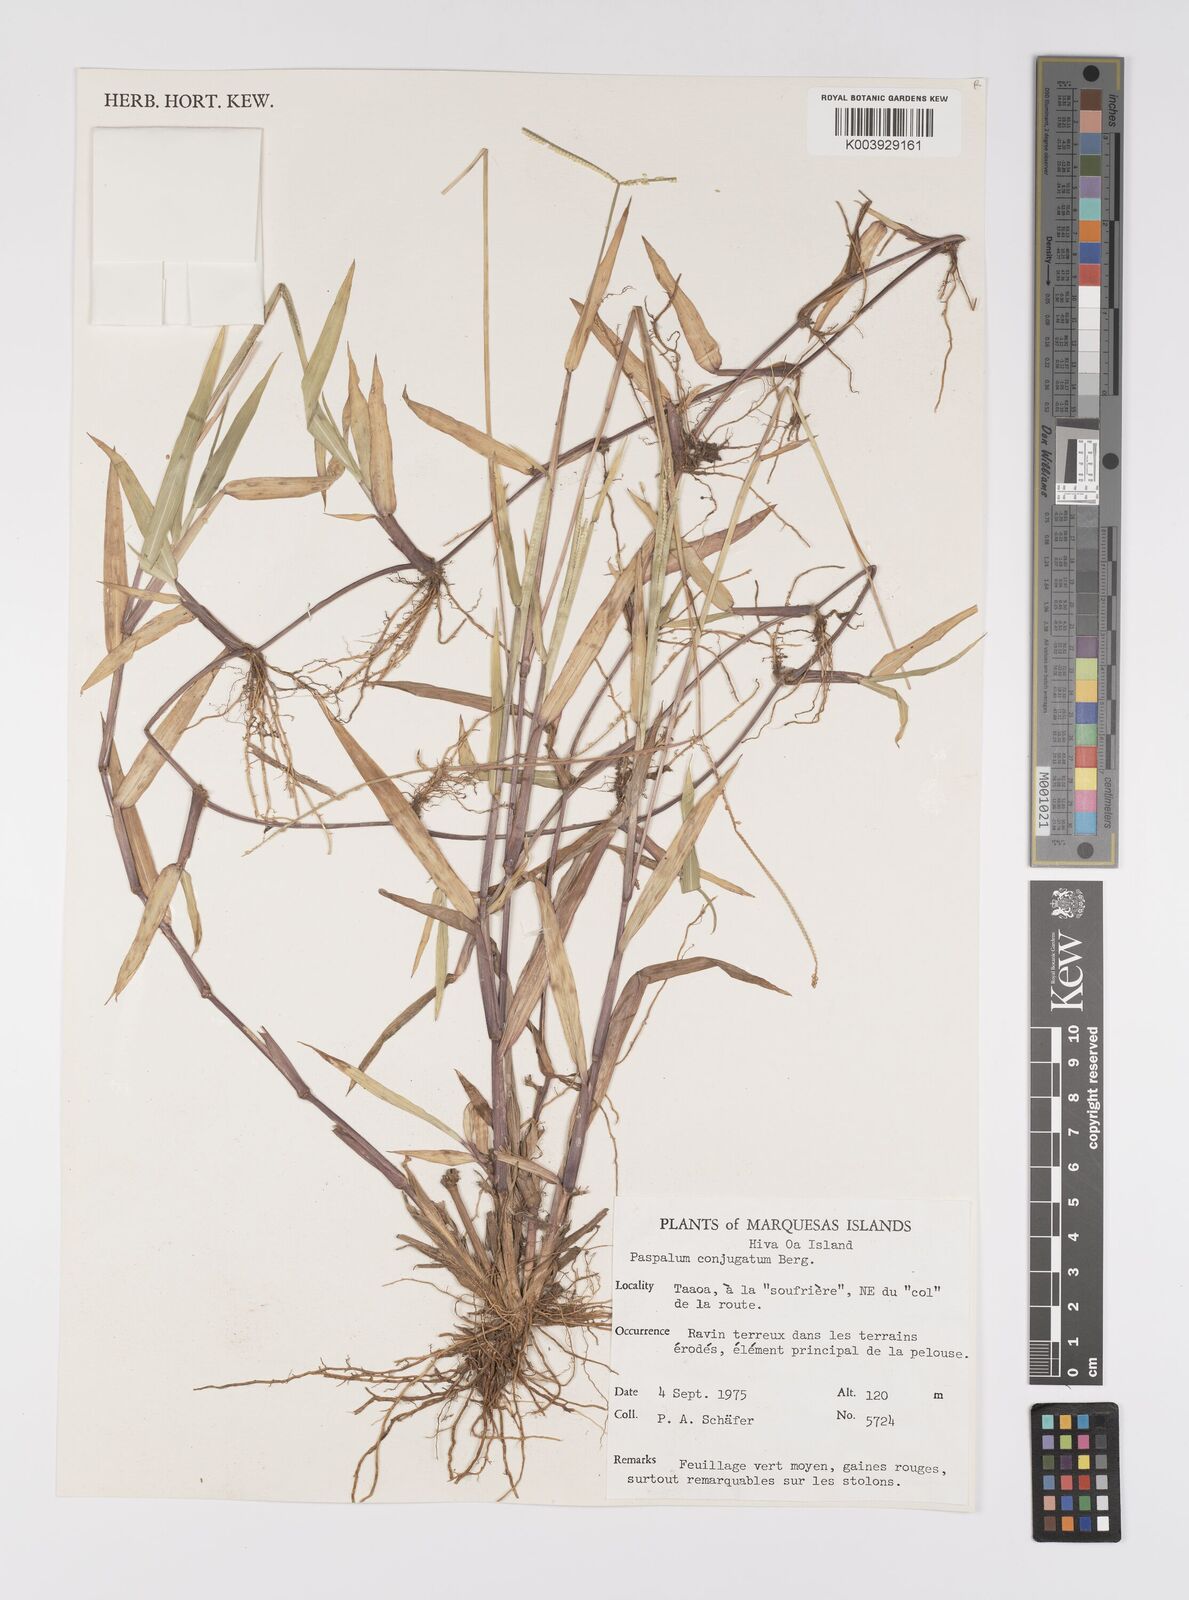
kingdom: Plantae
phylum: Tracheophyta
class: Liliopsida
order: Poales
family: Poaceae
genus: Paspalum
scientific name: Paspalum conjugatum
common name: Hilograss
